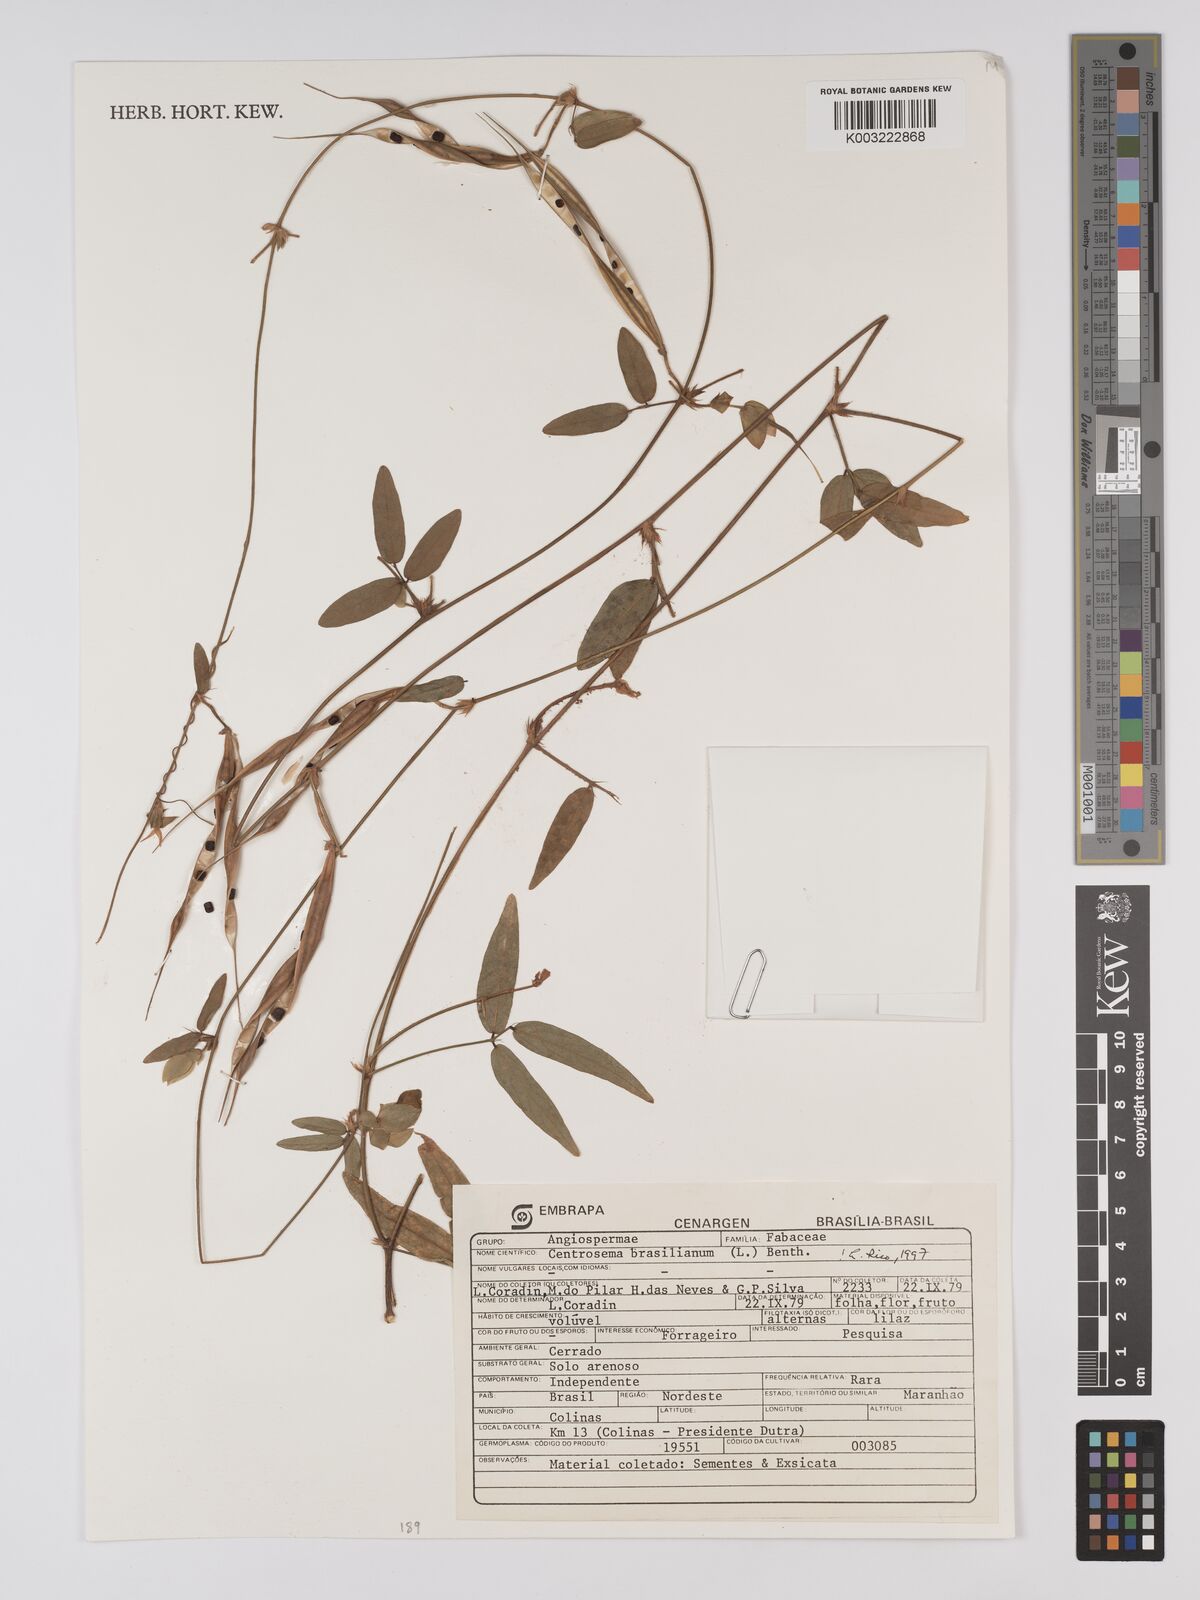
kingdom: Plantae
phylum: Tracheophyta
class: Magnoliopsida
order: Fabales
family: Fabaceae
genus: Centrosema
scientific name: Centrosema brasilianum
